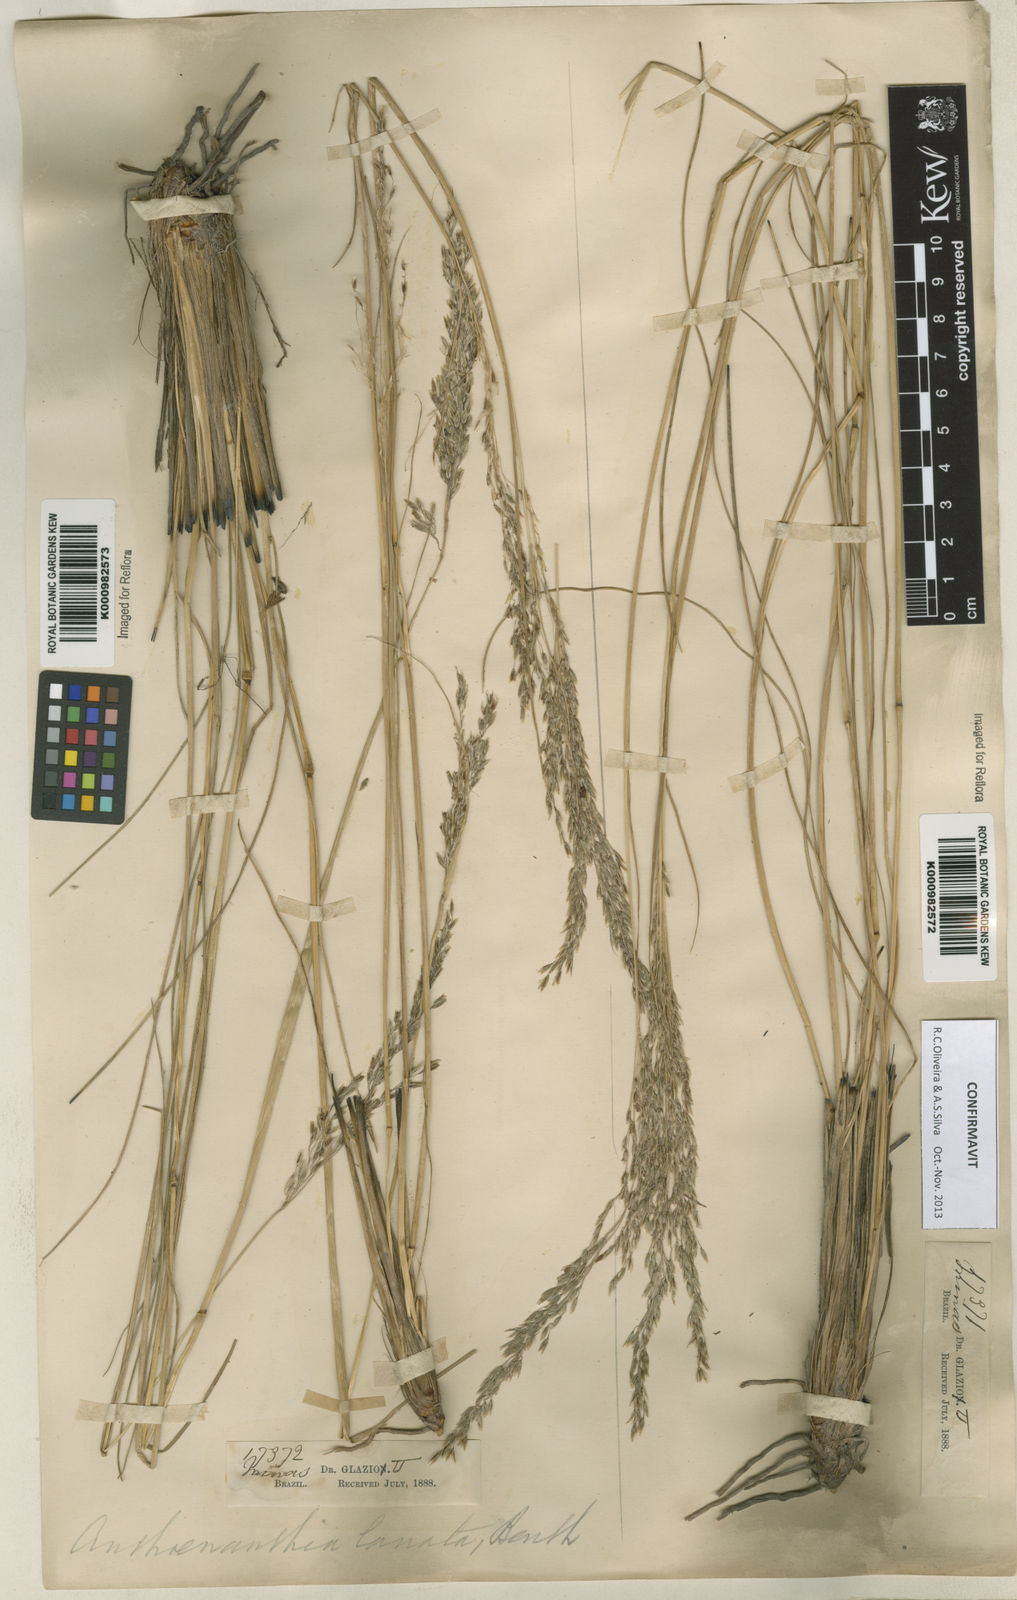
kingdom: Plantae
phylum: Tracheophyta
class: Liliopsida
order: Poales
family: Poaceae
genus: Anthenantia
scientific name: Anthenantia lanata
